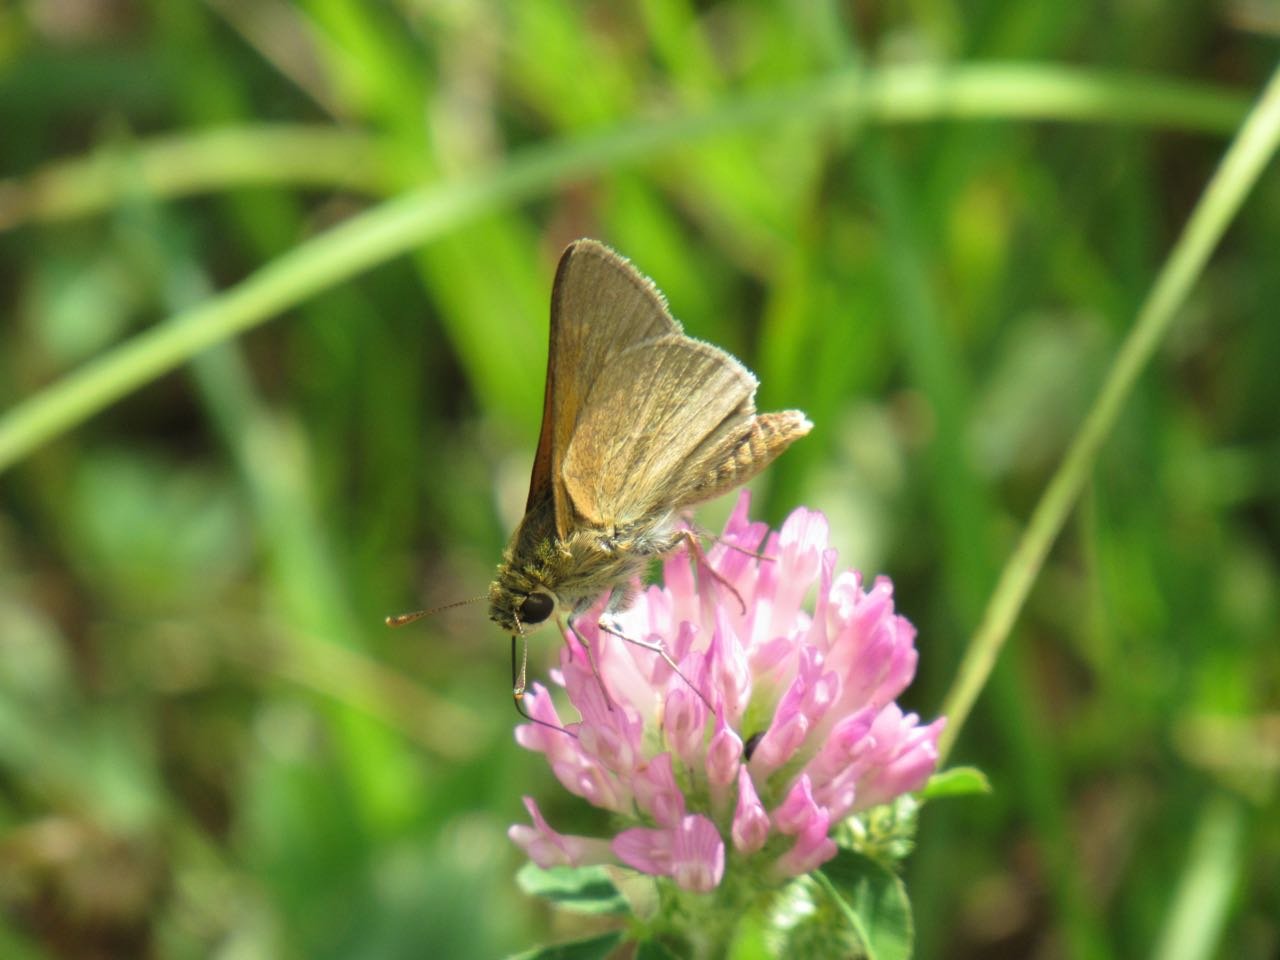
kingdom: Animalia
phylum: Arthropoda
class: Insecta
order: Lepidoptera
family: Hesperiidae
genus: Polites
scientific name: Polites themistocles
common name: Tawny-edged Skipper
